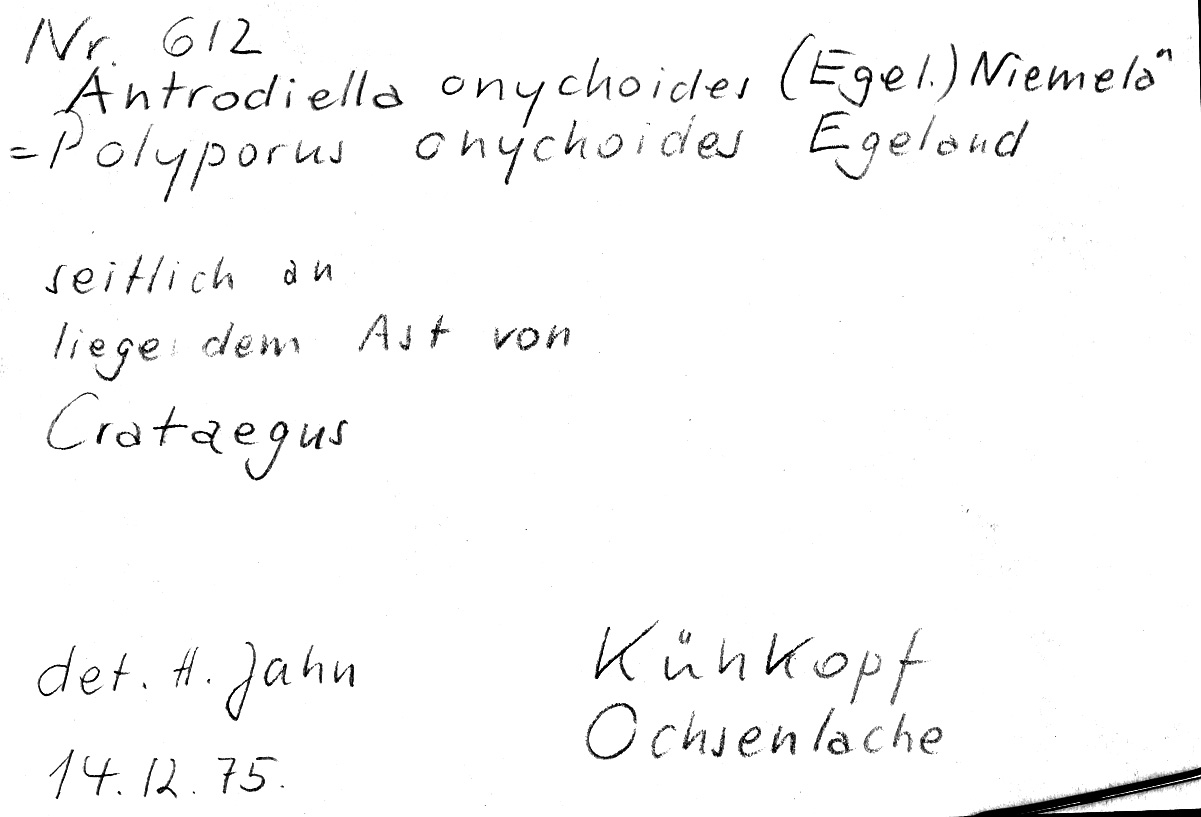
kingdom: Fungi
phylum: Basidiomycota
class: Agaricomycetes
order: Polyporales
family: Steccherinaceae
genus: Antrodiella
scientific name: Antrodiella onychoides
